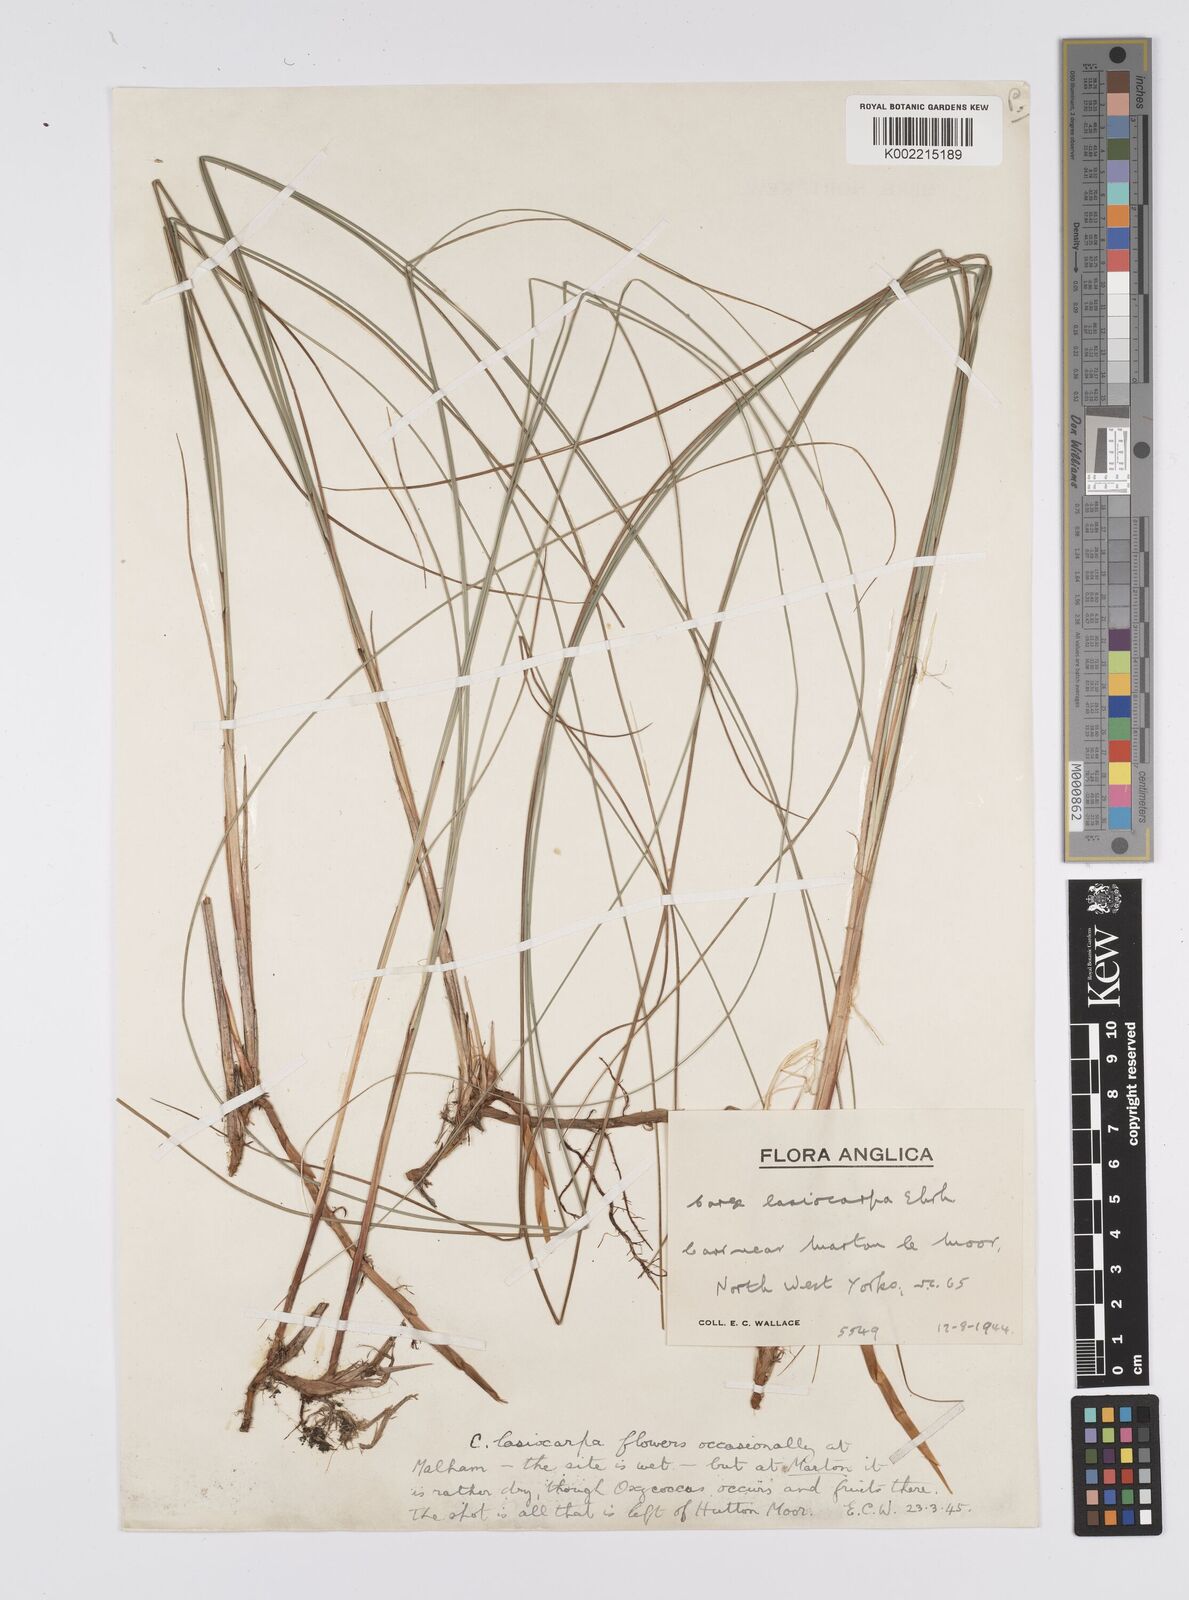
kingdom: Plantae
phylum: Tracheophyta
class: Liliopsida
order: Poales
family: Cyperaceae
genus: Carex
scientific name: Carex lasiocarpa
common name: Slender sedge
